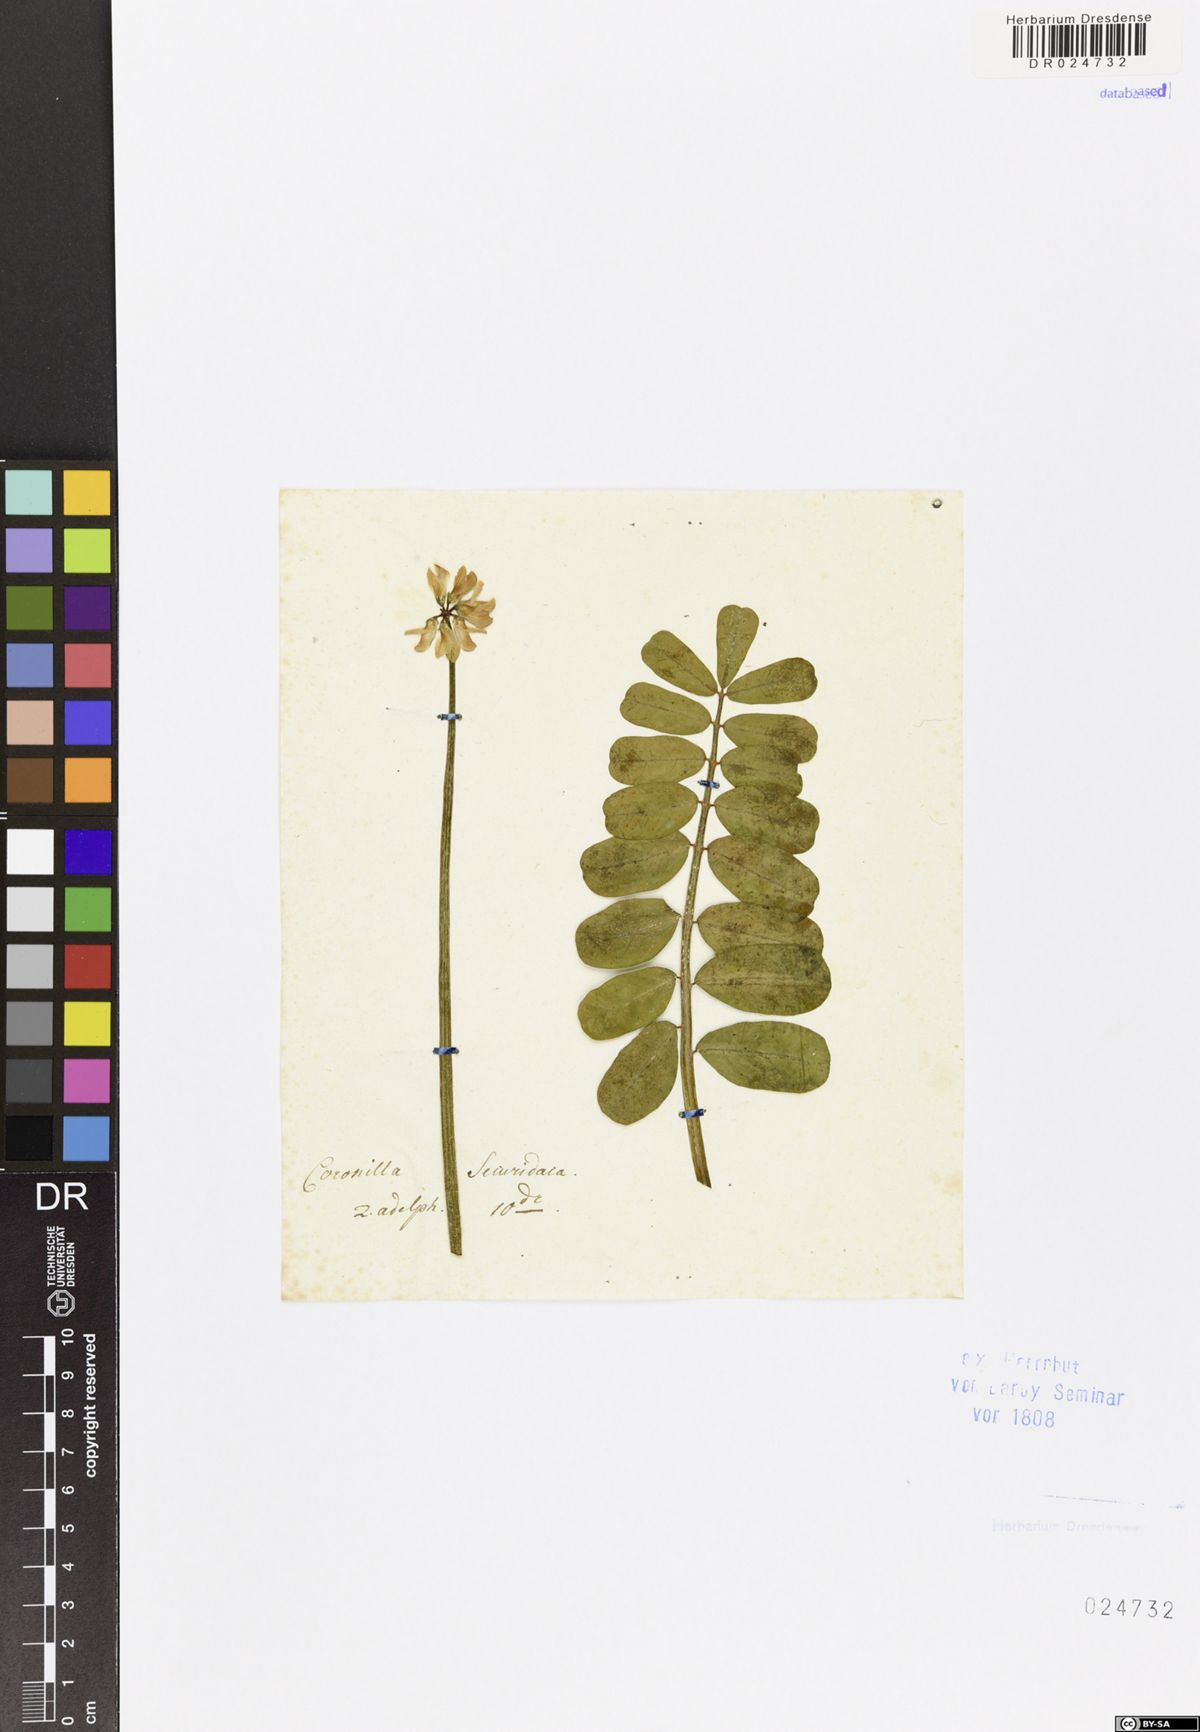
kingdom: Plantae
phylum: Tracheophyta
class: Magnoliopsida
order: Fabales
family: Fabaceae
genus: Coronilla
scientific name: Coronilla securidaca
